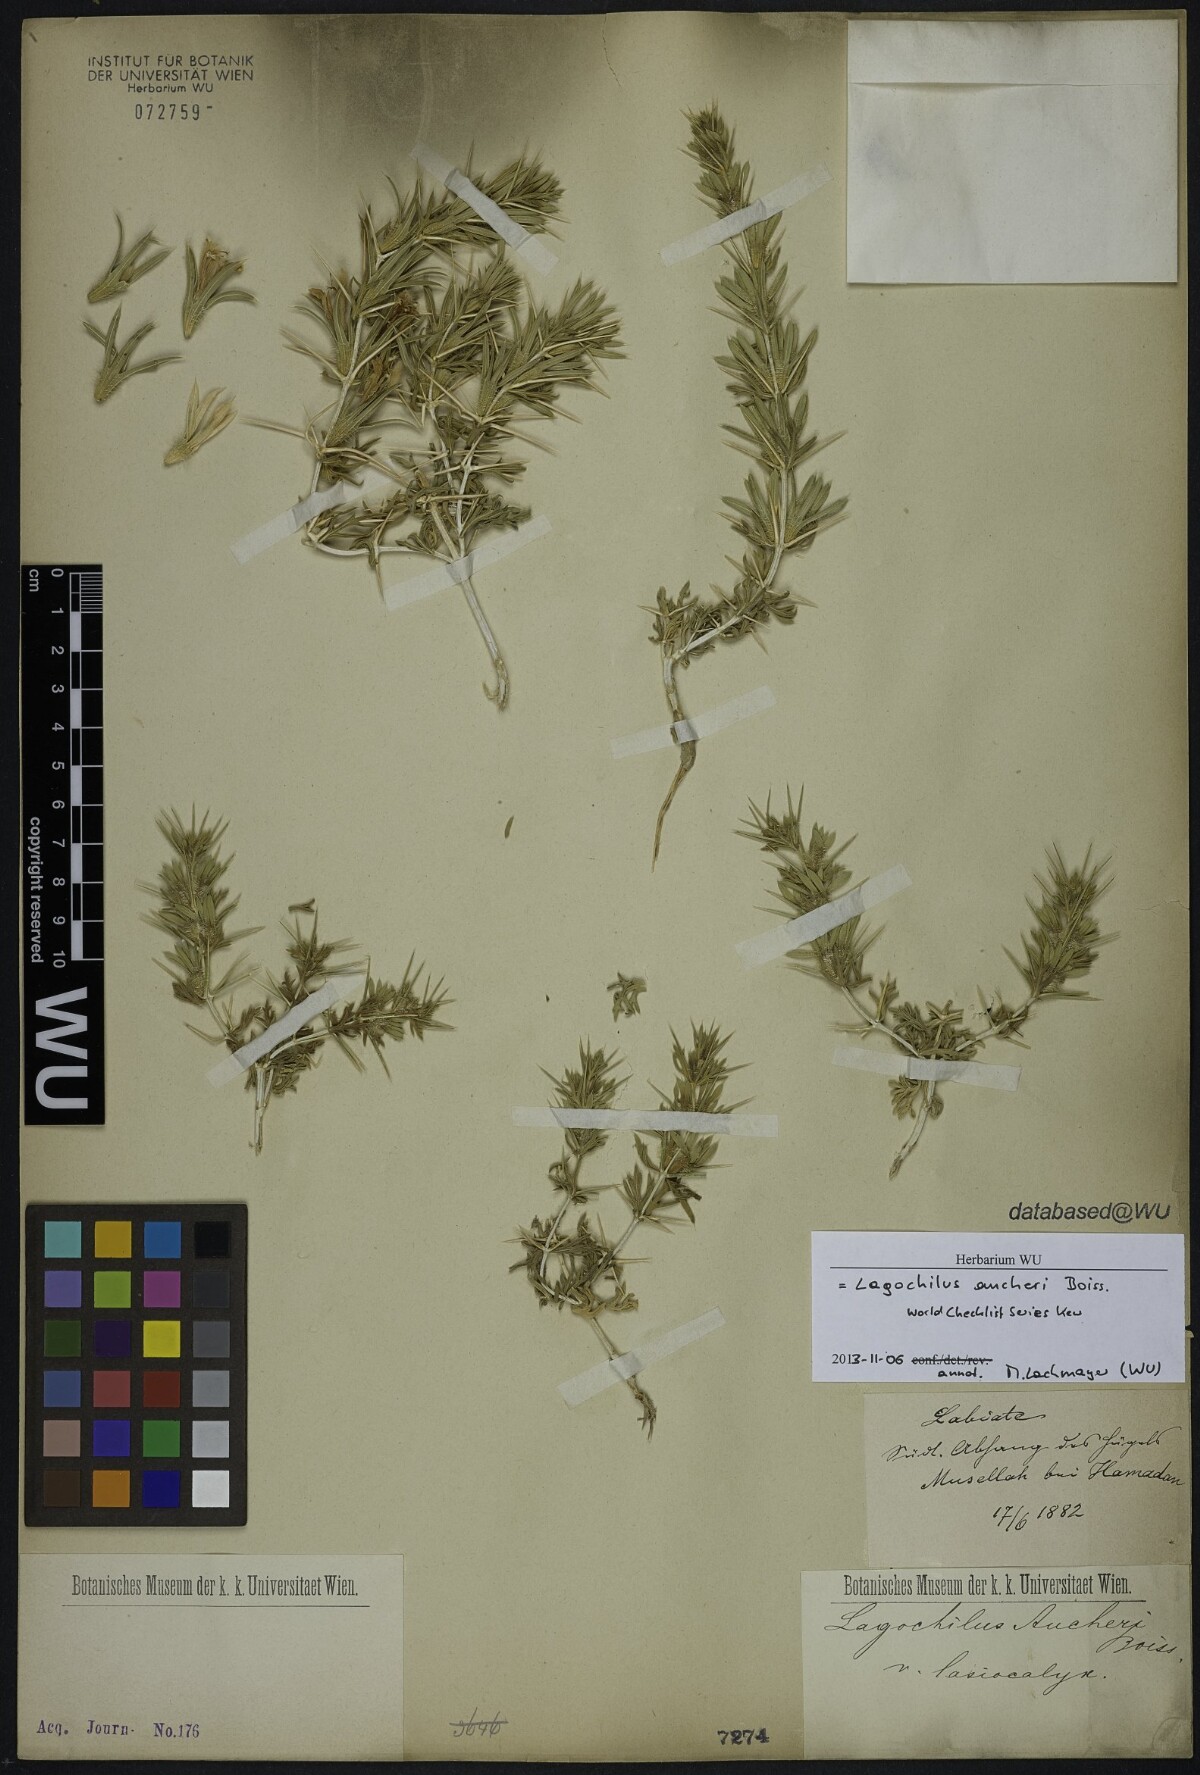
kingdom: Plantae
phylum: Tracheophyta
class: Magnoliopsida
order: Lamiales
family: Lamiaceae
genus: Lagochilus
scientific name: Lagochilus aucheri
